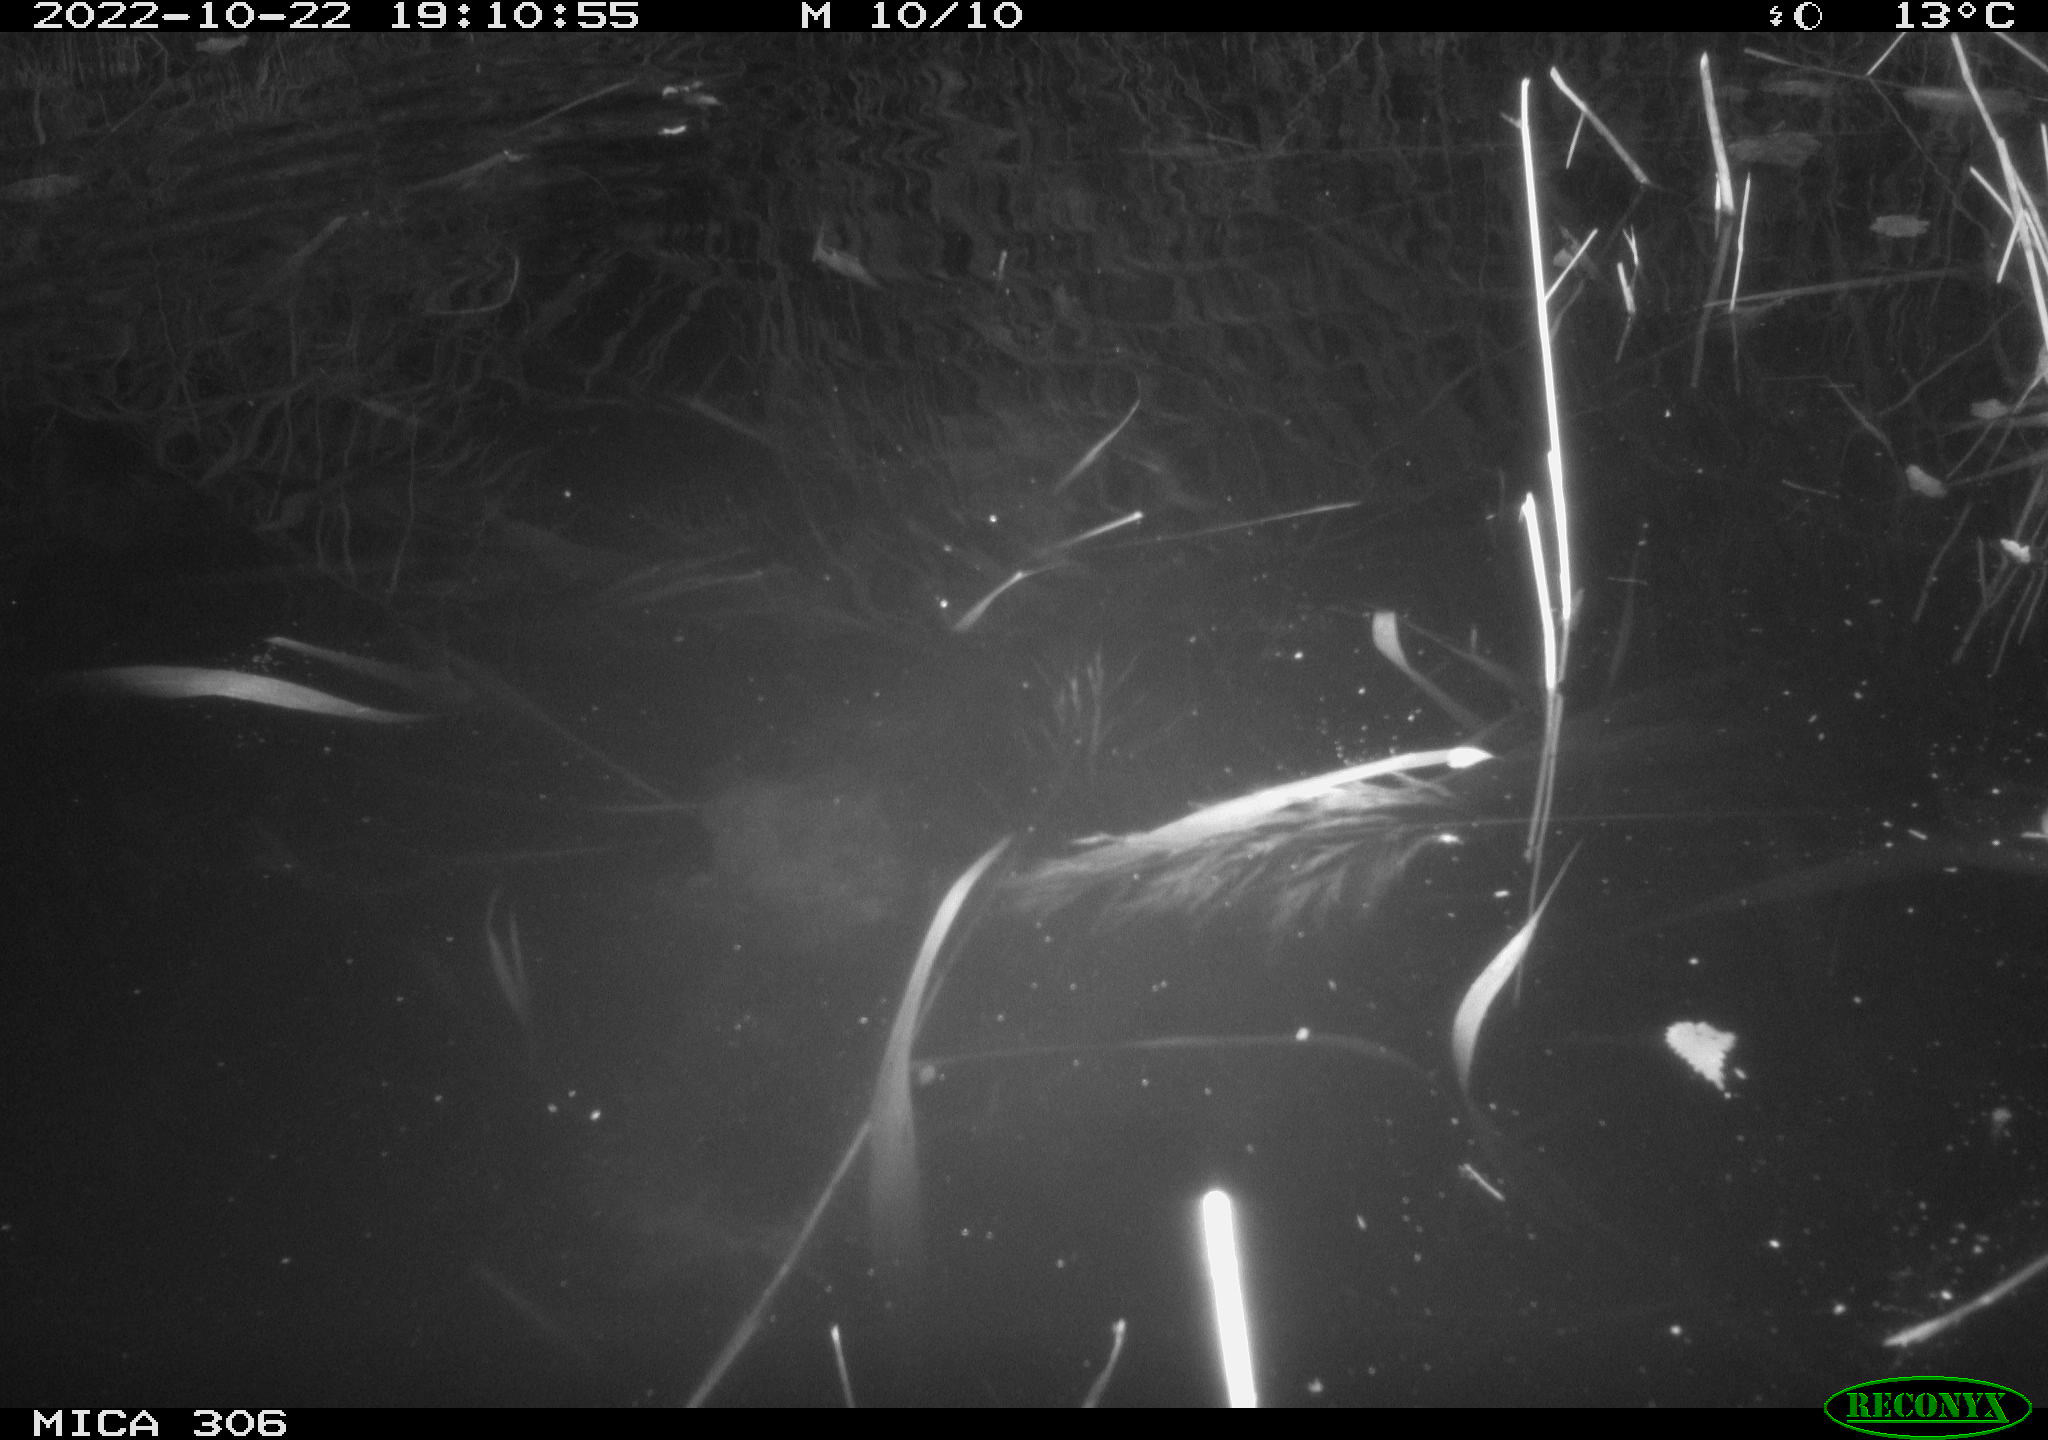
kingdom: Animalia
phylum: Chordata
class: Mammalia
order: Rodentia
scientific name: Rodentia
